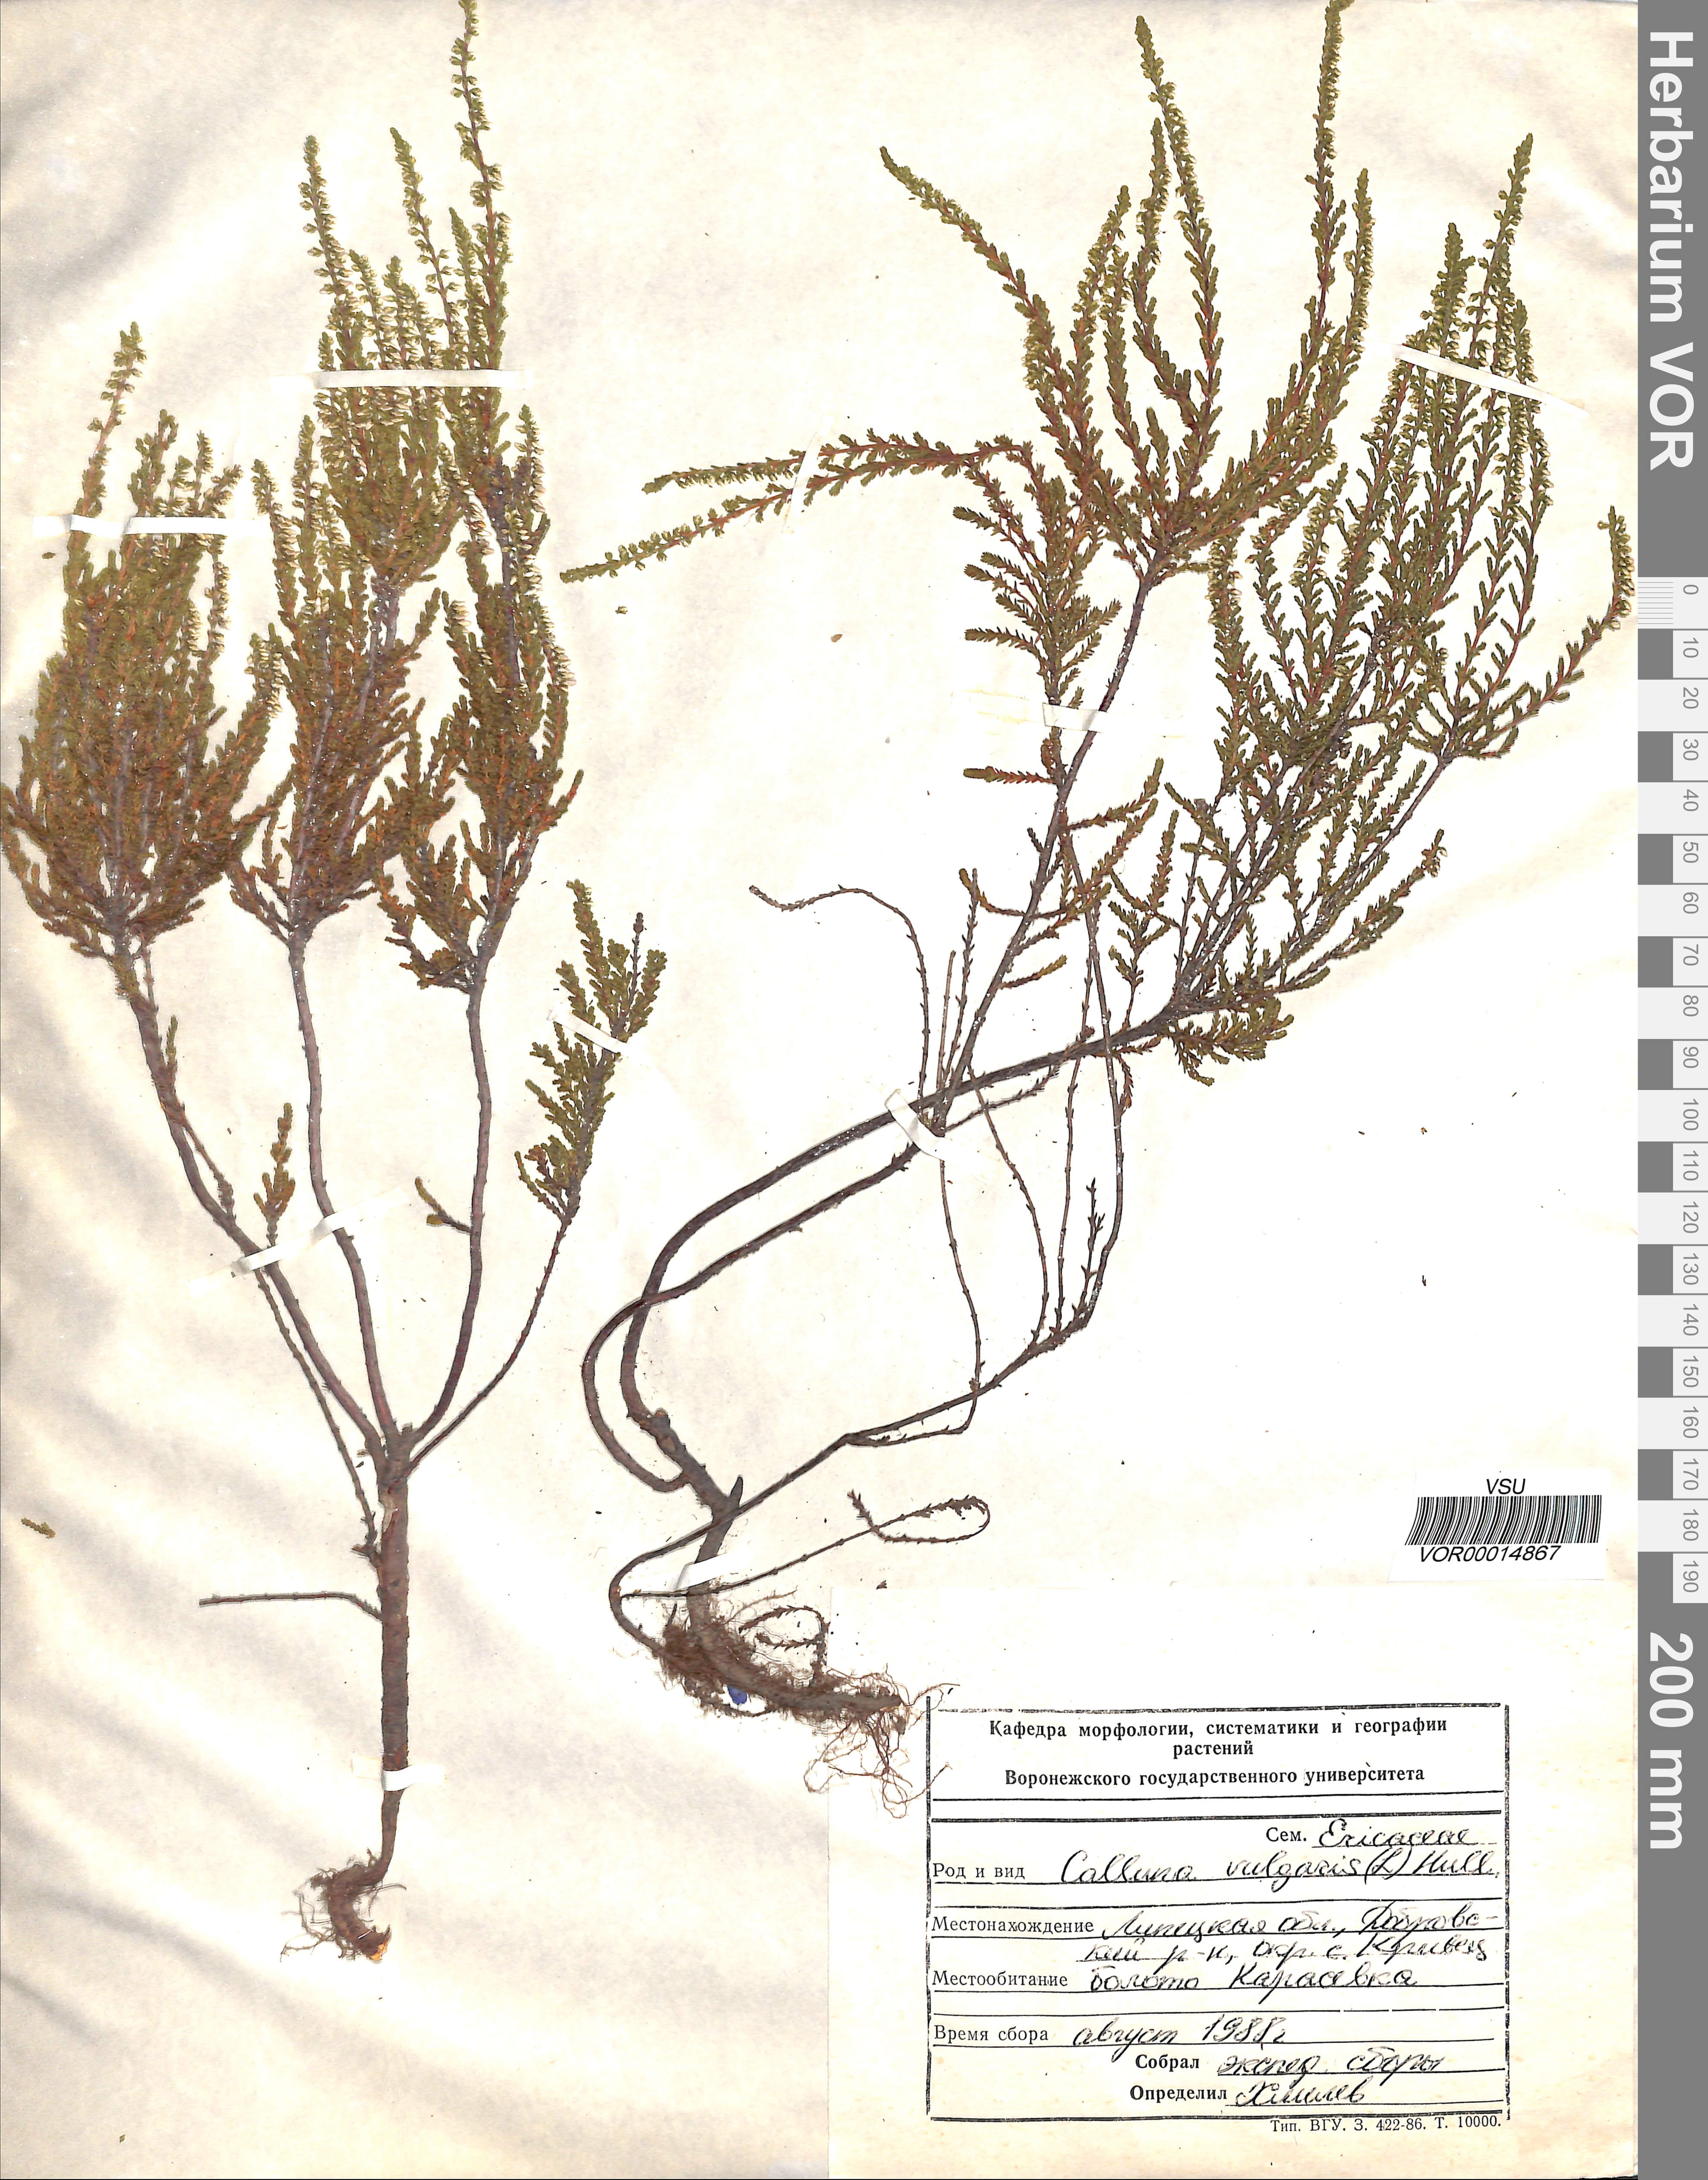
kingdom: Plantae
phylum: Tracheophyta
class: Magnoliopsida
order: Ericales
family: Ericaceae
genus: Calluna
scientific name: Calluna vulgaris
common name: Heather
